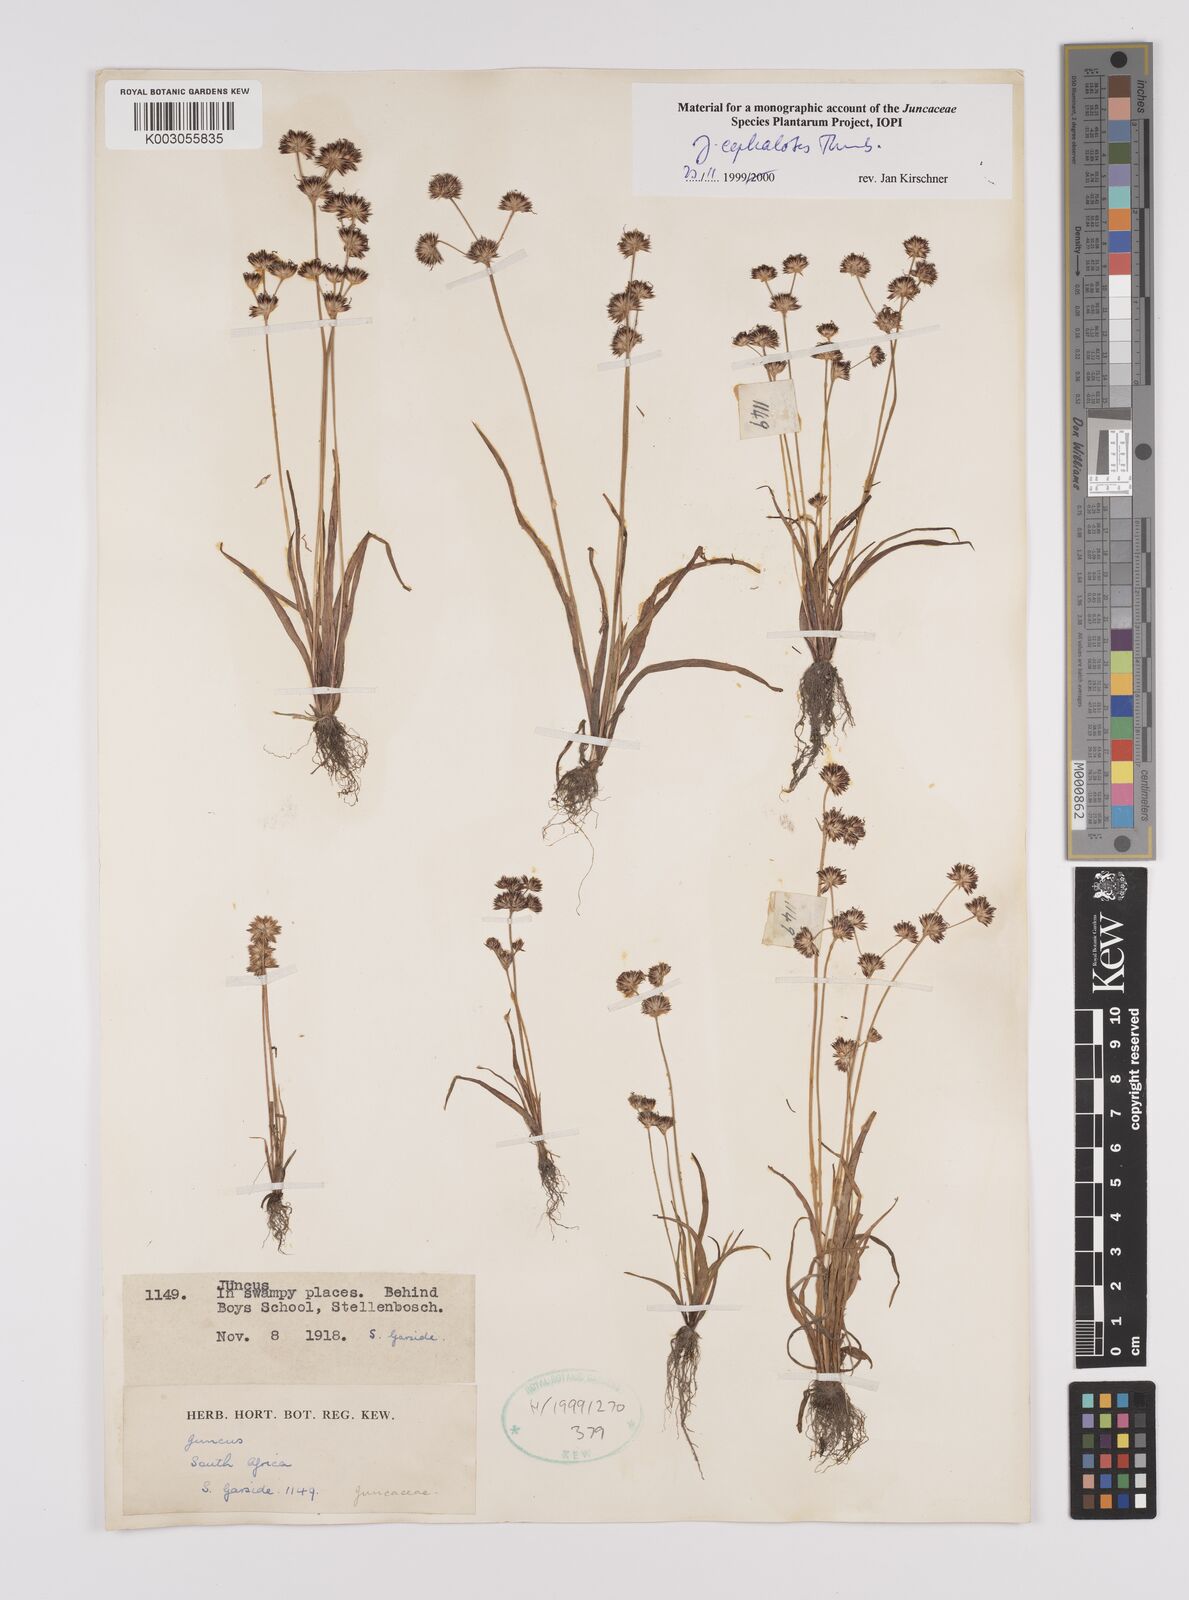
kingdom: Plantae
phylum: Tracheophyta
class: Liliopsida
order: Poales
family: Juncaceae
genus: Juncus
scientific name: Juncus cephalotes
